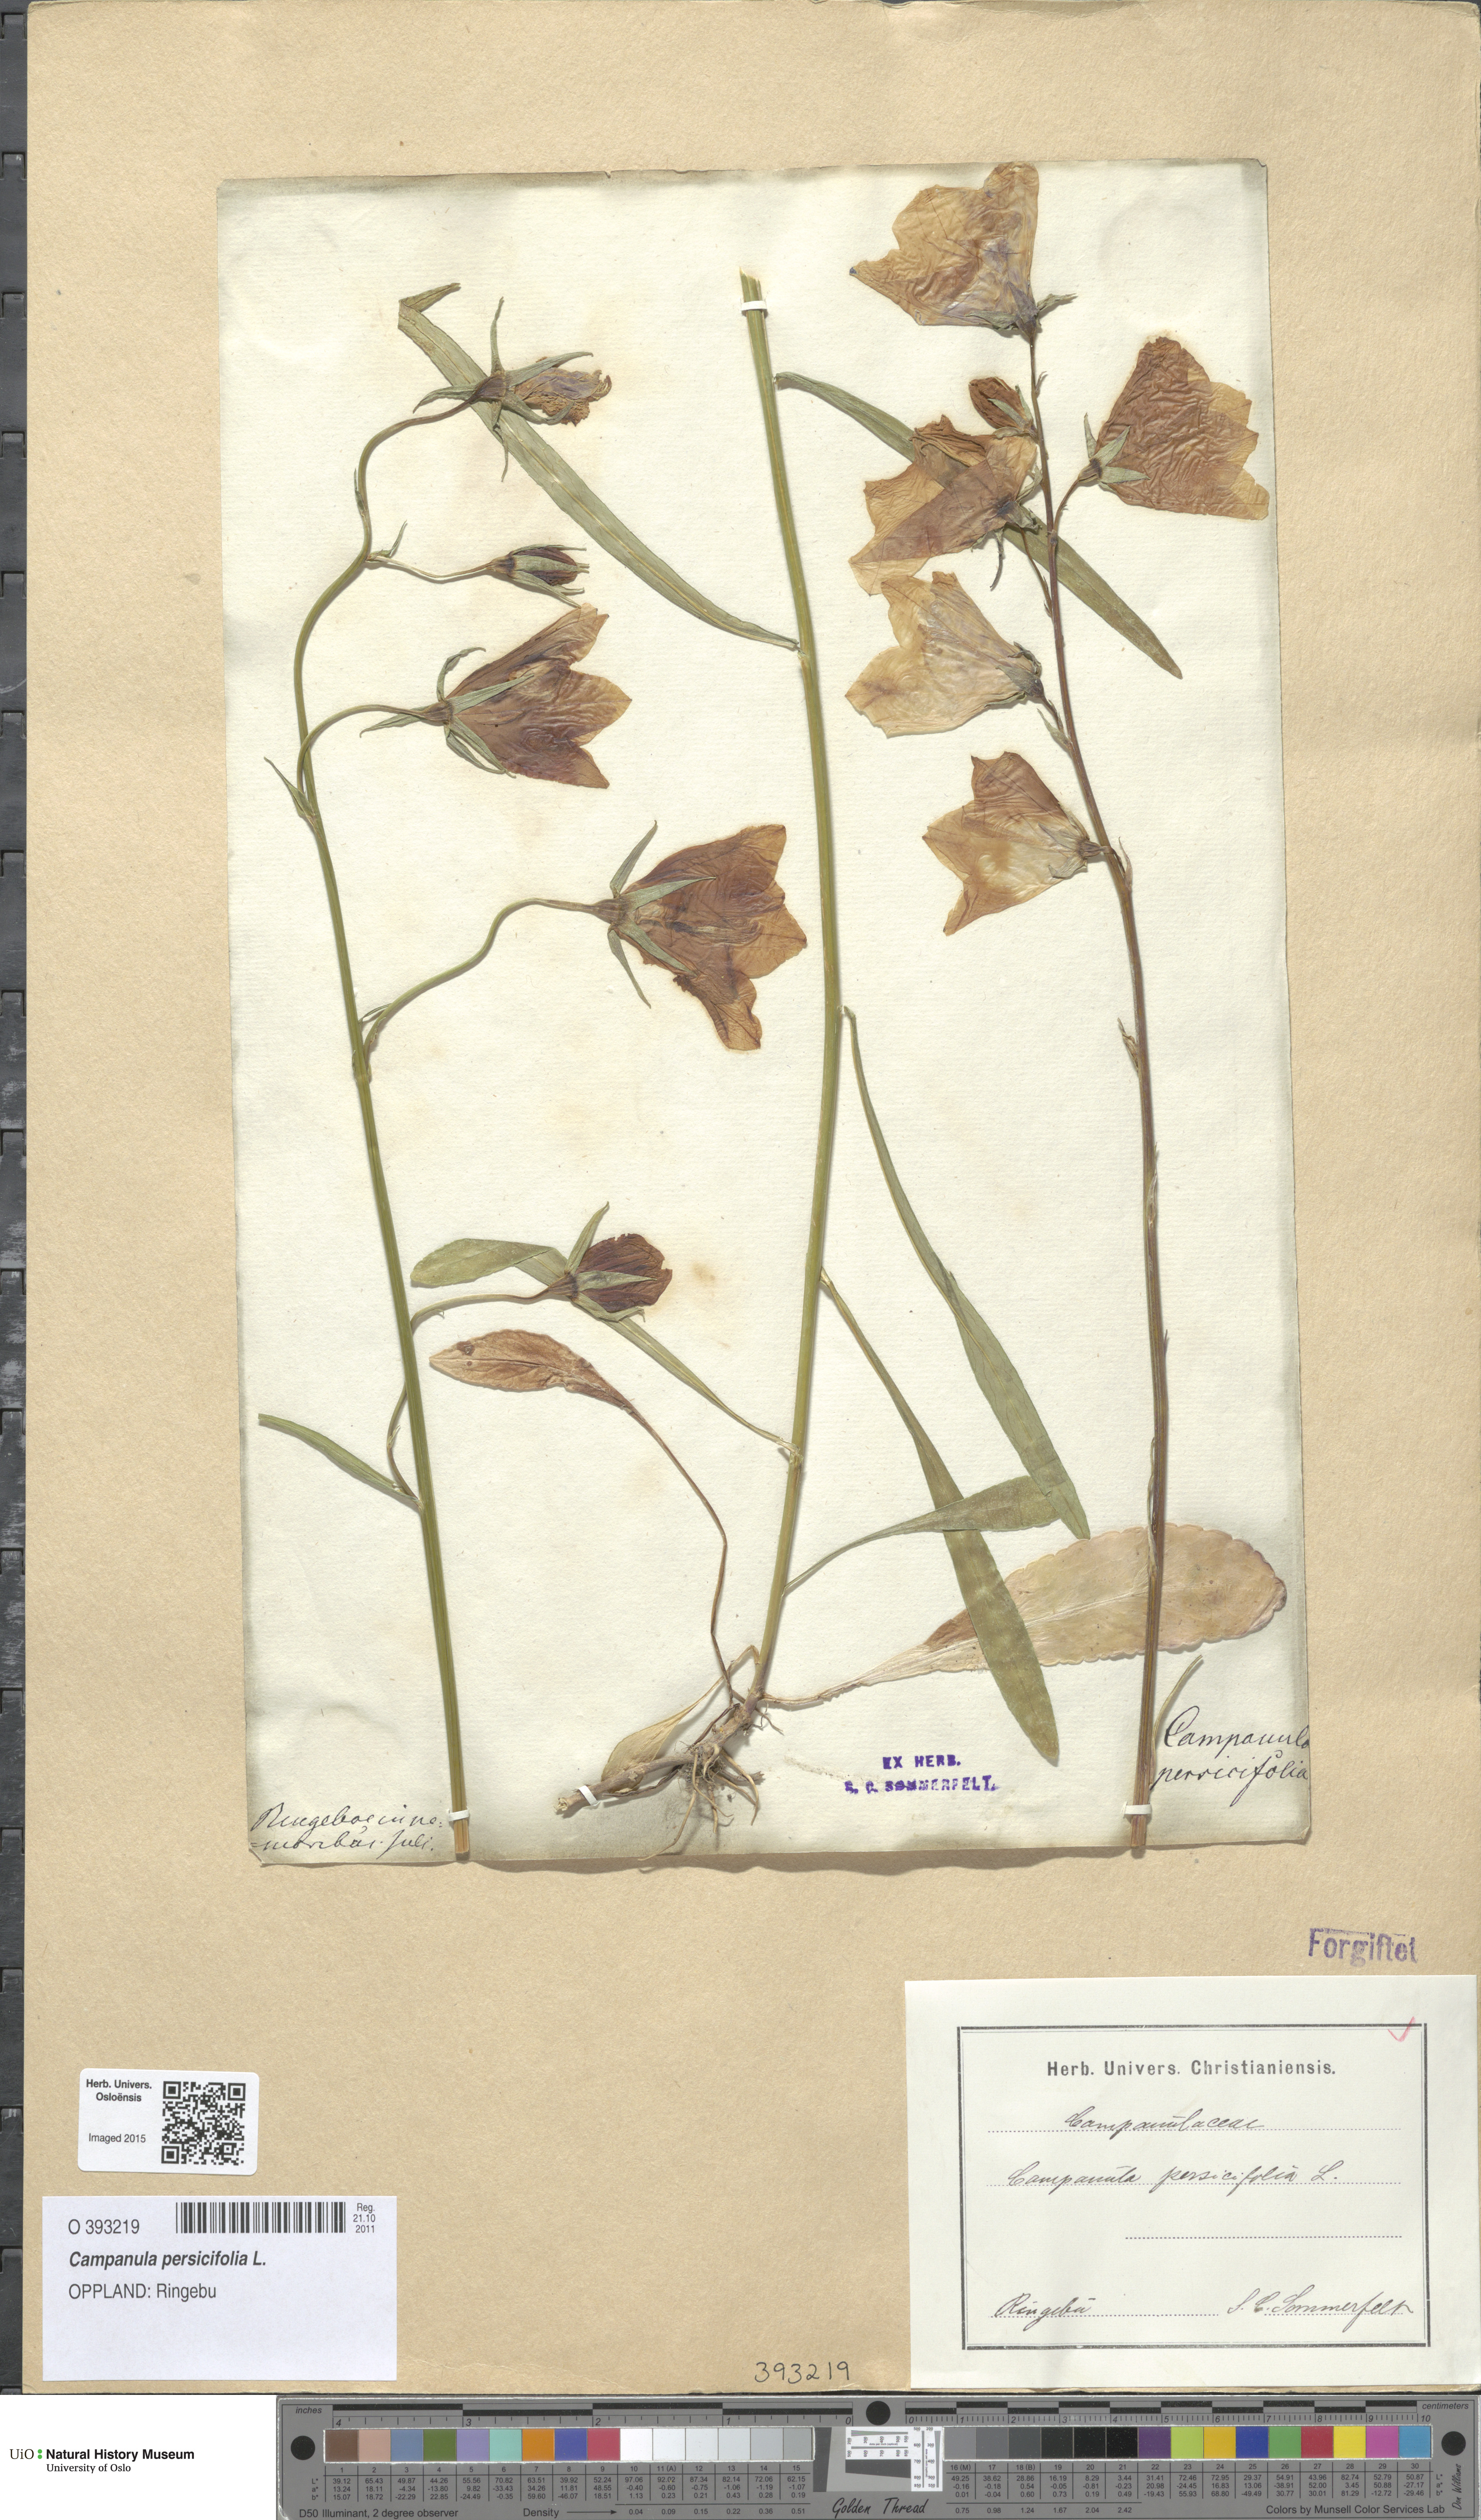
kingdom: Plantae
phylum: Tracheophyta
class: Magnoliopsida
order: Asterales
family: Campanulaceae
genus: Campanula
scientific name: Campanula persicifolia
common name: Peach-leaved bellflower
